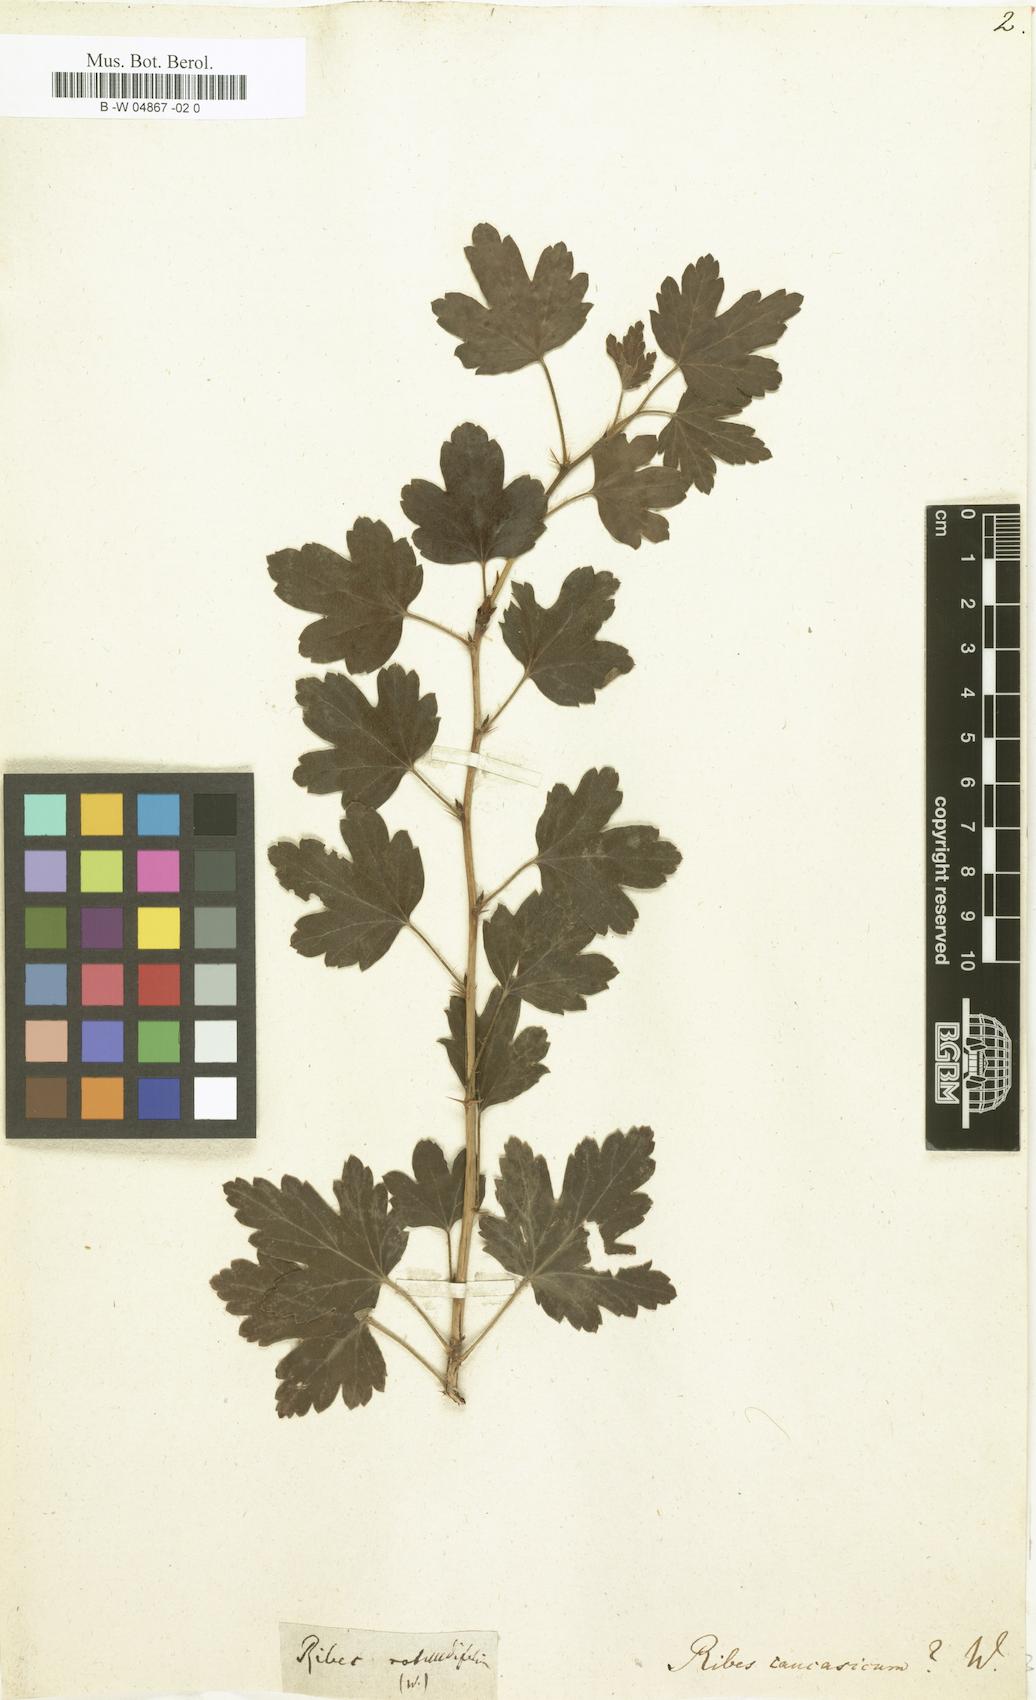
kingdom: Plantae
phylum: Tracheophyta
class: Magnoliopsida
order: Saxifragales
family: Grossulariaceae
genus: Ribes
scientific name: Ribes
